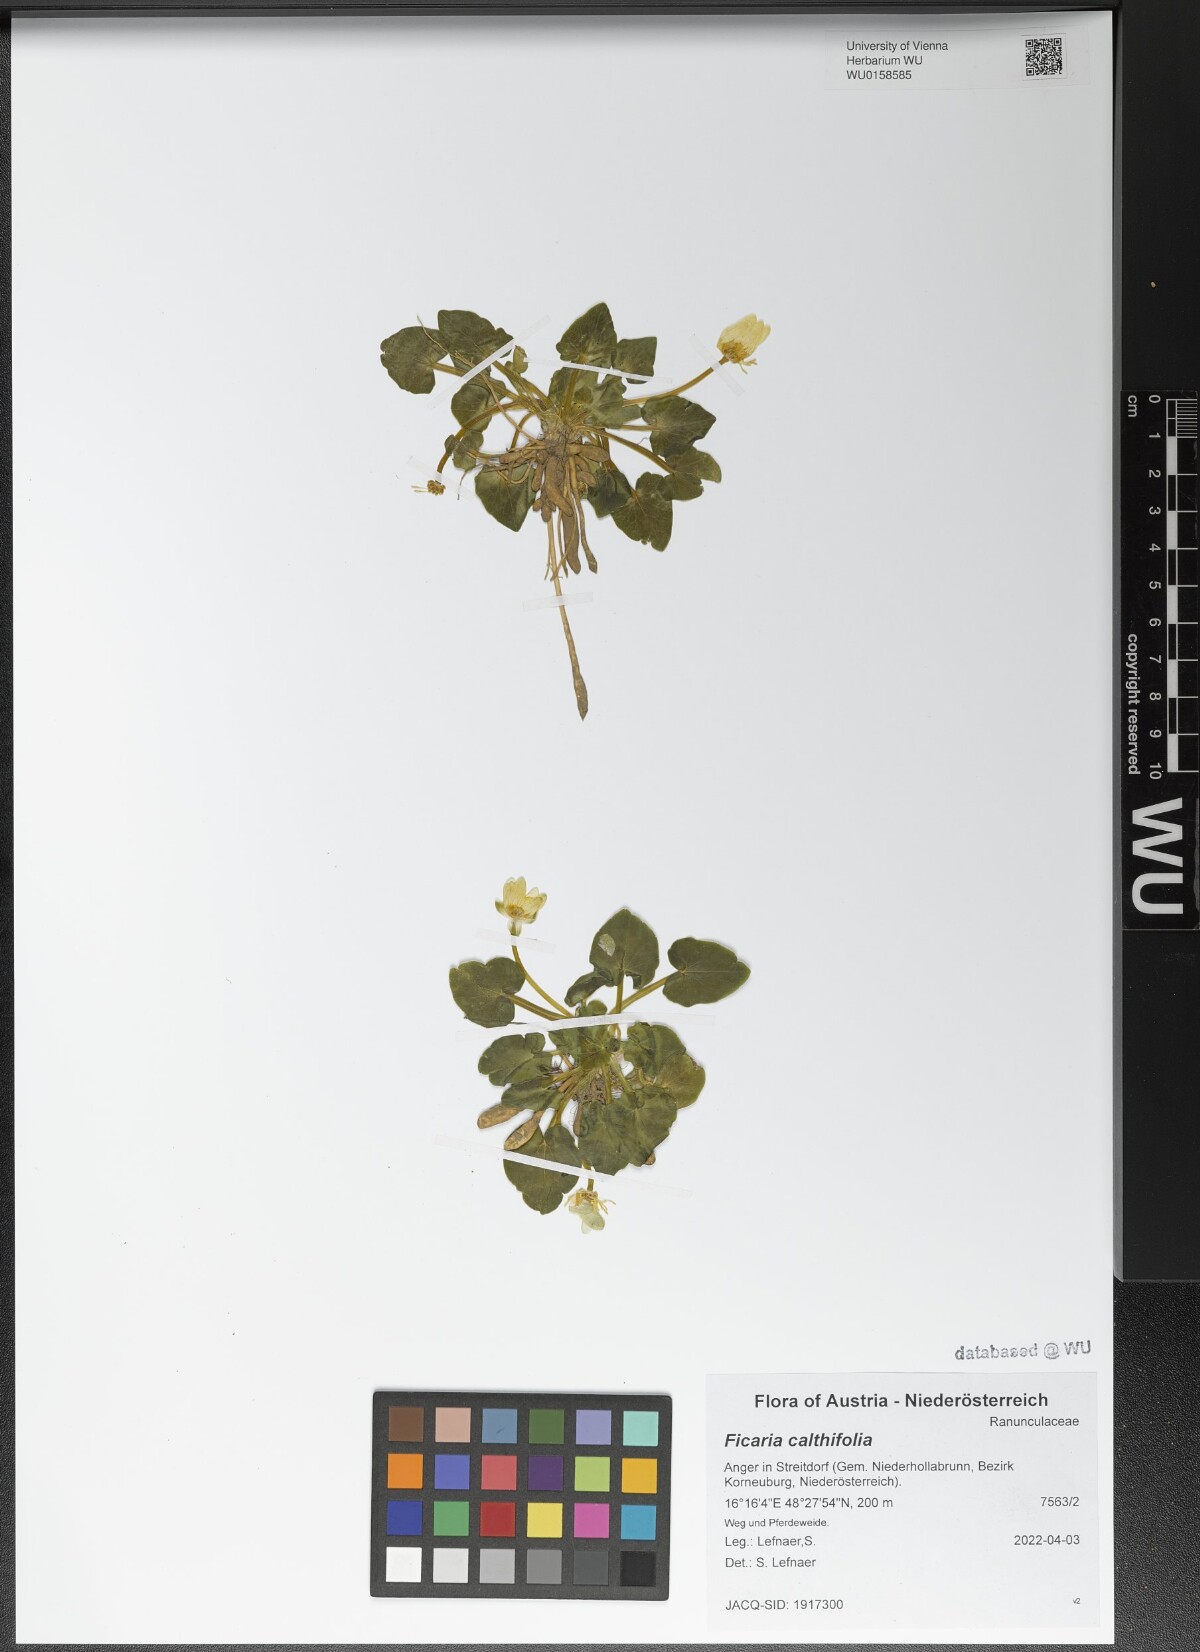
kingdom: Plantae
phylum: Tracheophyta
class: Magnoliopsida
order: Ranunculales
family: Ranunculaceae
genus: Ficaria
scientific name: Ficaria calthifolia
